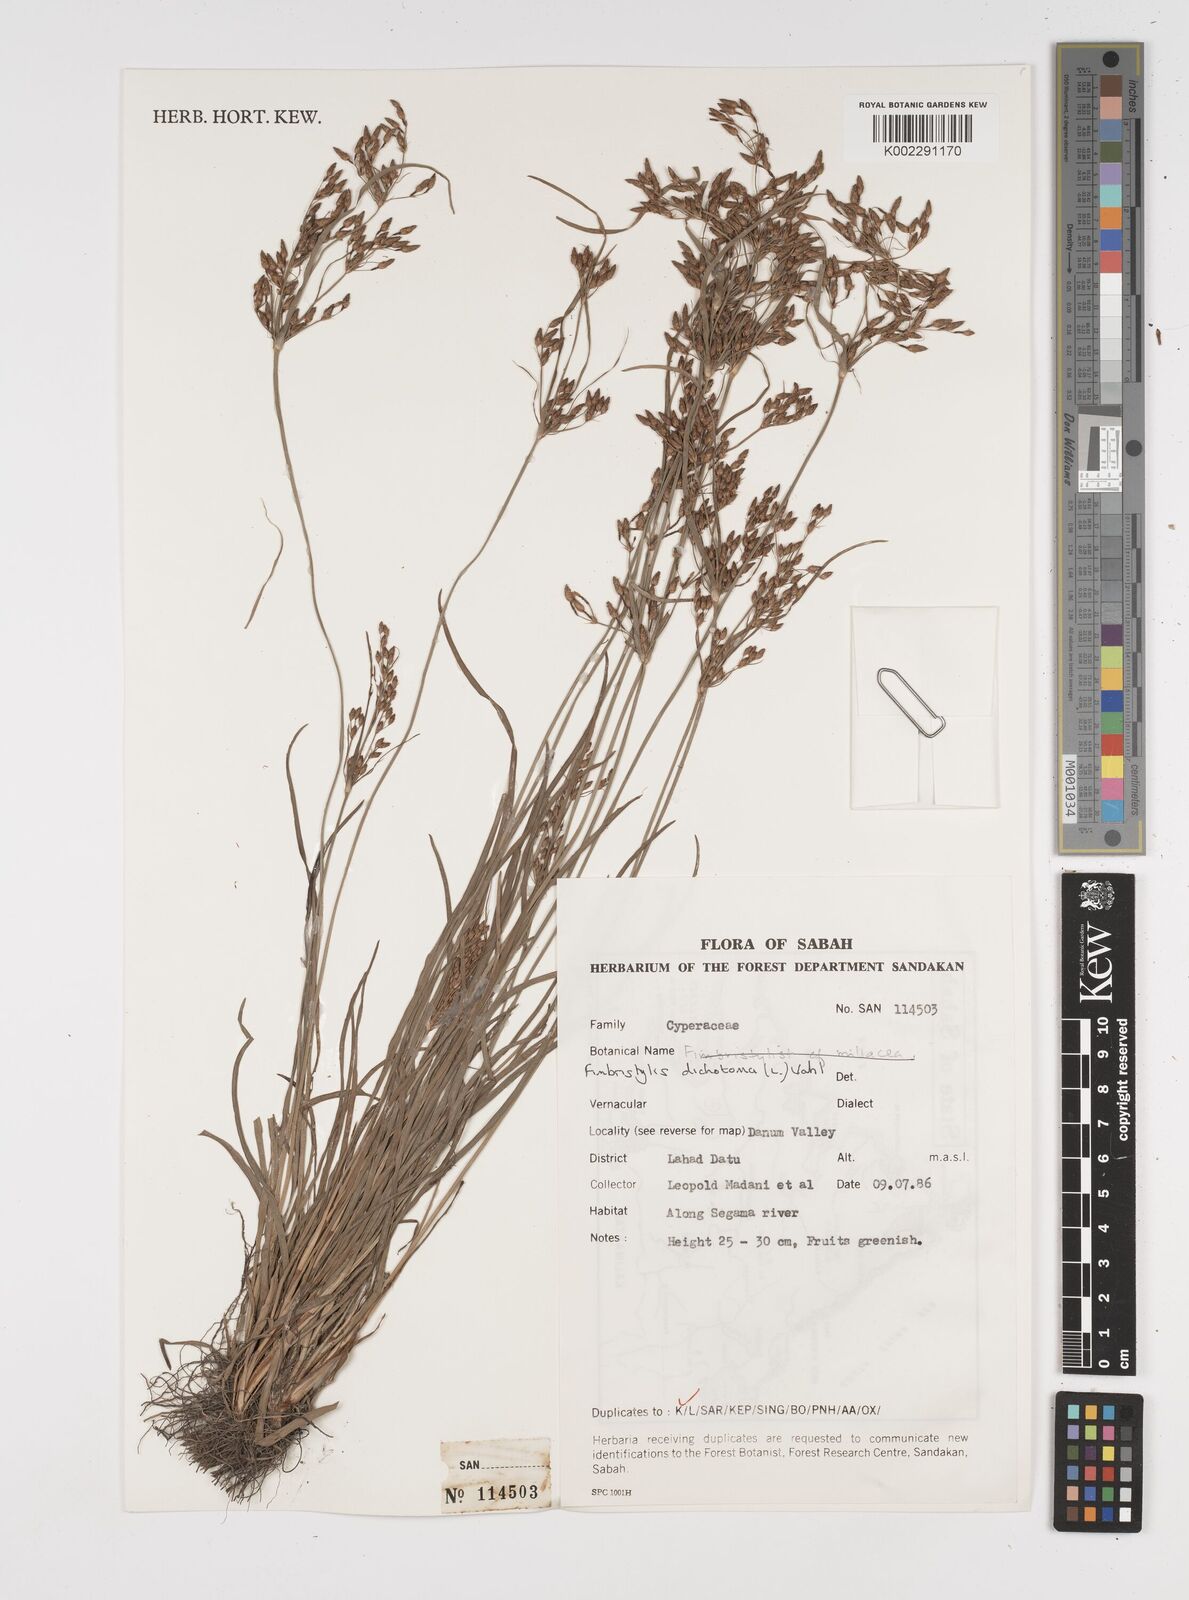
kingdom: Plantae
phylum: Tracheophyta
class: Liliopsida
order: Poales
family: Cyperaceae
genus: Fimbristylis
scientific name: Fimbristylis dichotoma
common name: Forked fimbry
